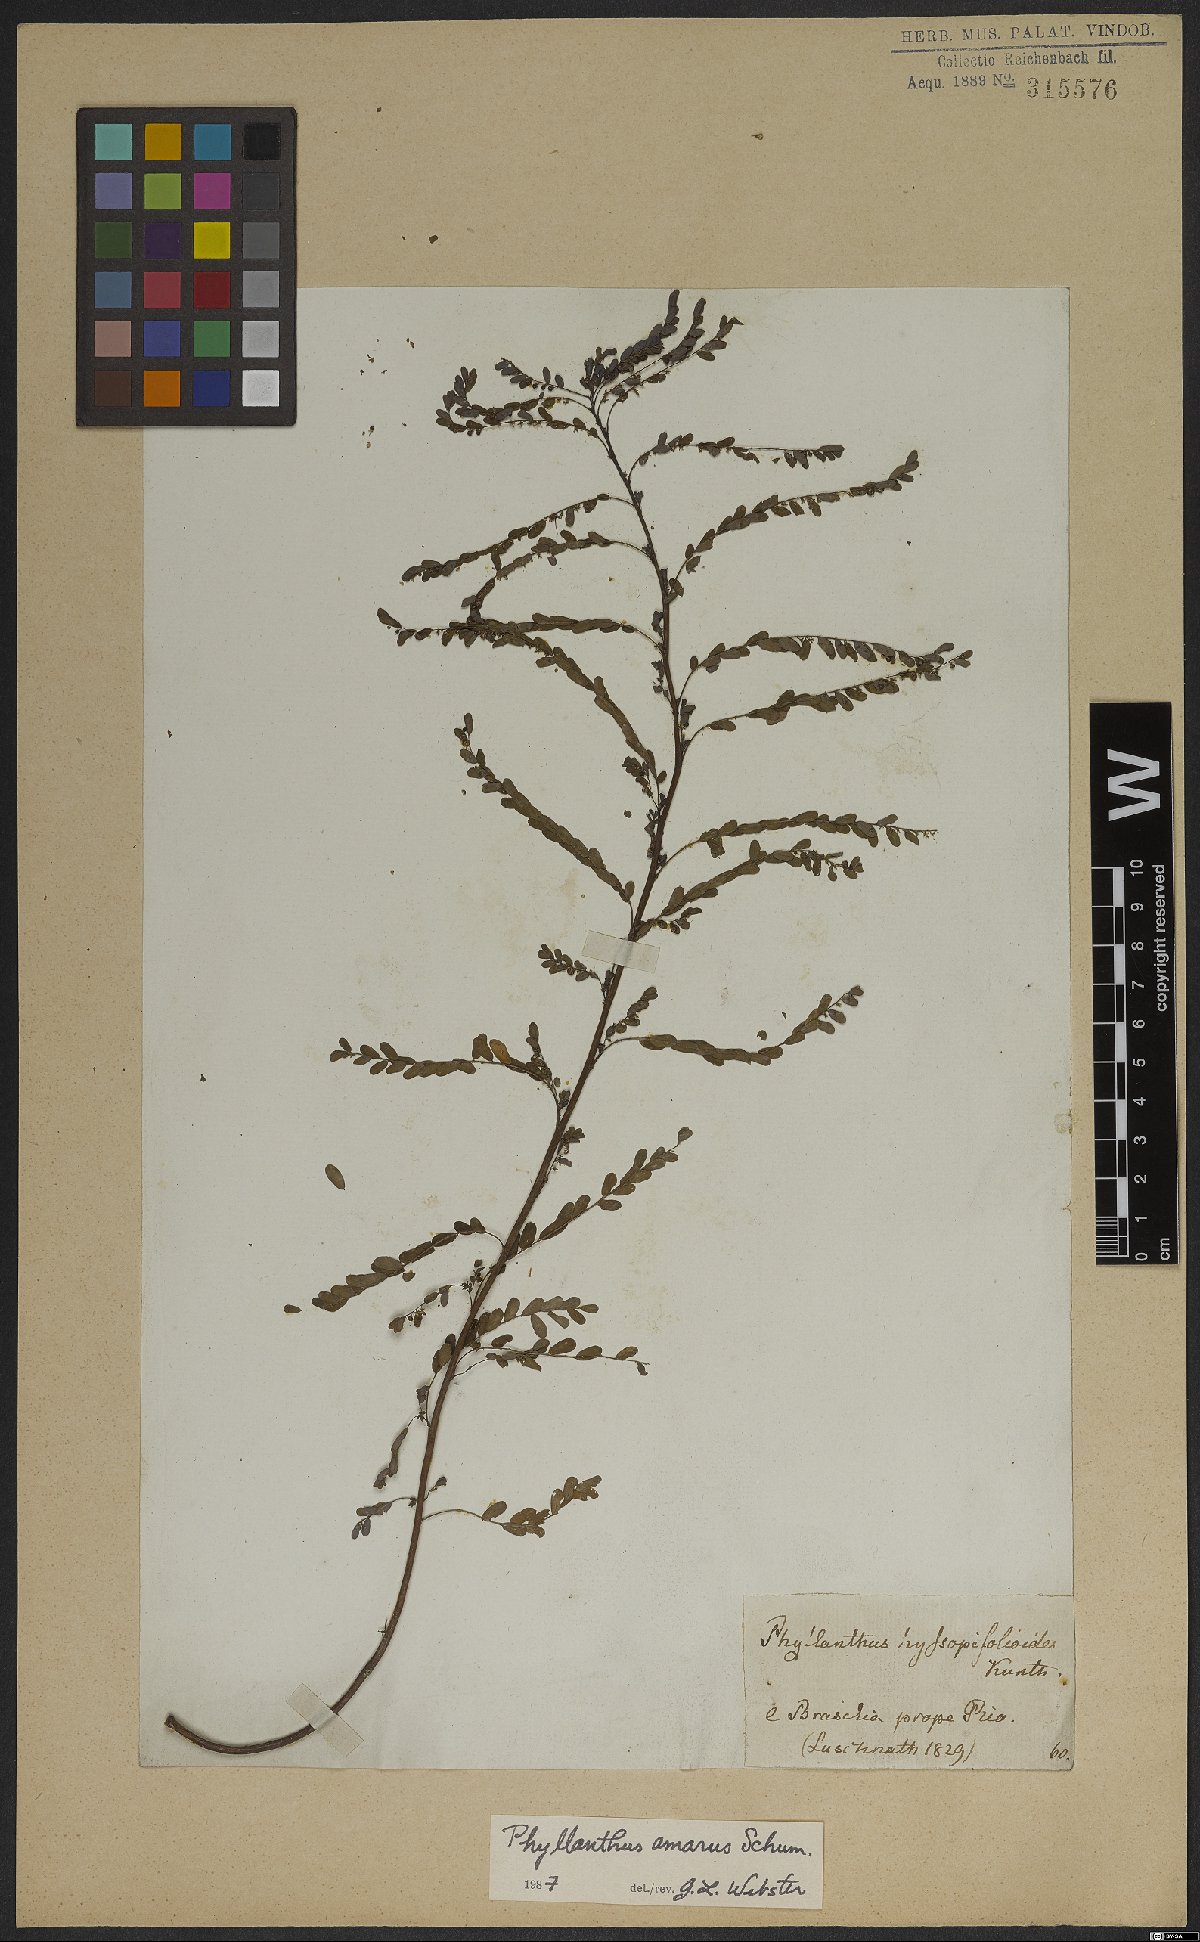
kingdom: Plantae
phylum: Tracheophyta
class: Magnoliopsida
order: Malpighiales
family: Phyllanthaceae
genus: Phyllanthus
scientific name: Phyllanthus amarus
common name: Carry me seed
